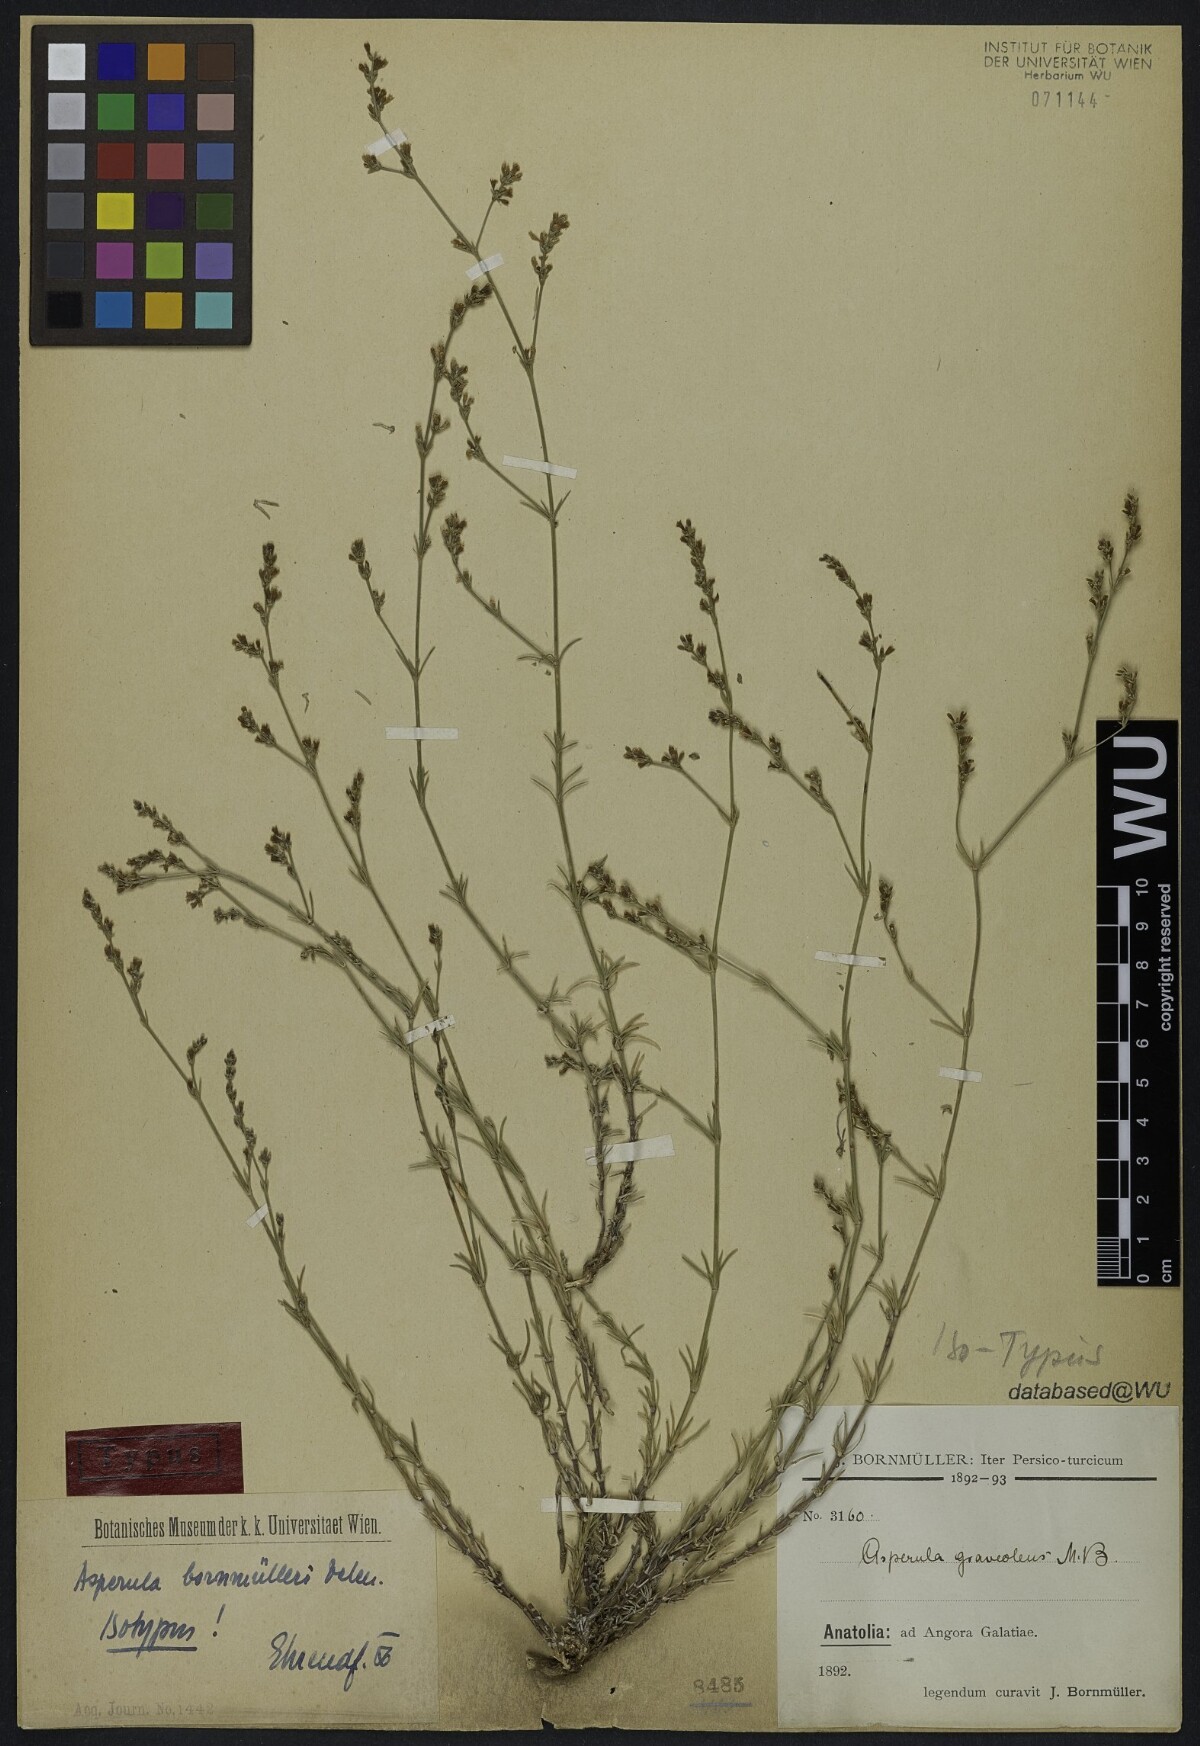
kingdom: Plantae
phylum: Tracheophyta
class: Magnoliopsida
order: Gentianales
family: Rubiaceae
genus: Cynanchica
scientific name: Cynanchica bornmuelleri
